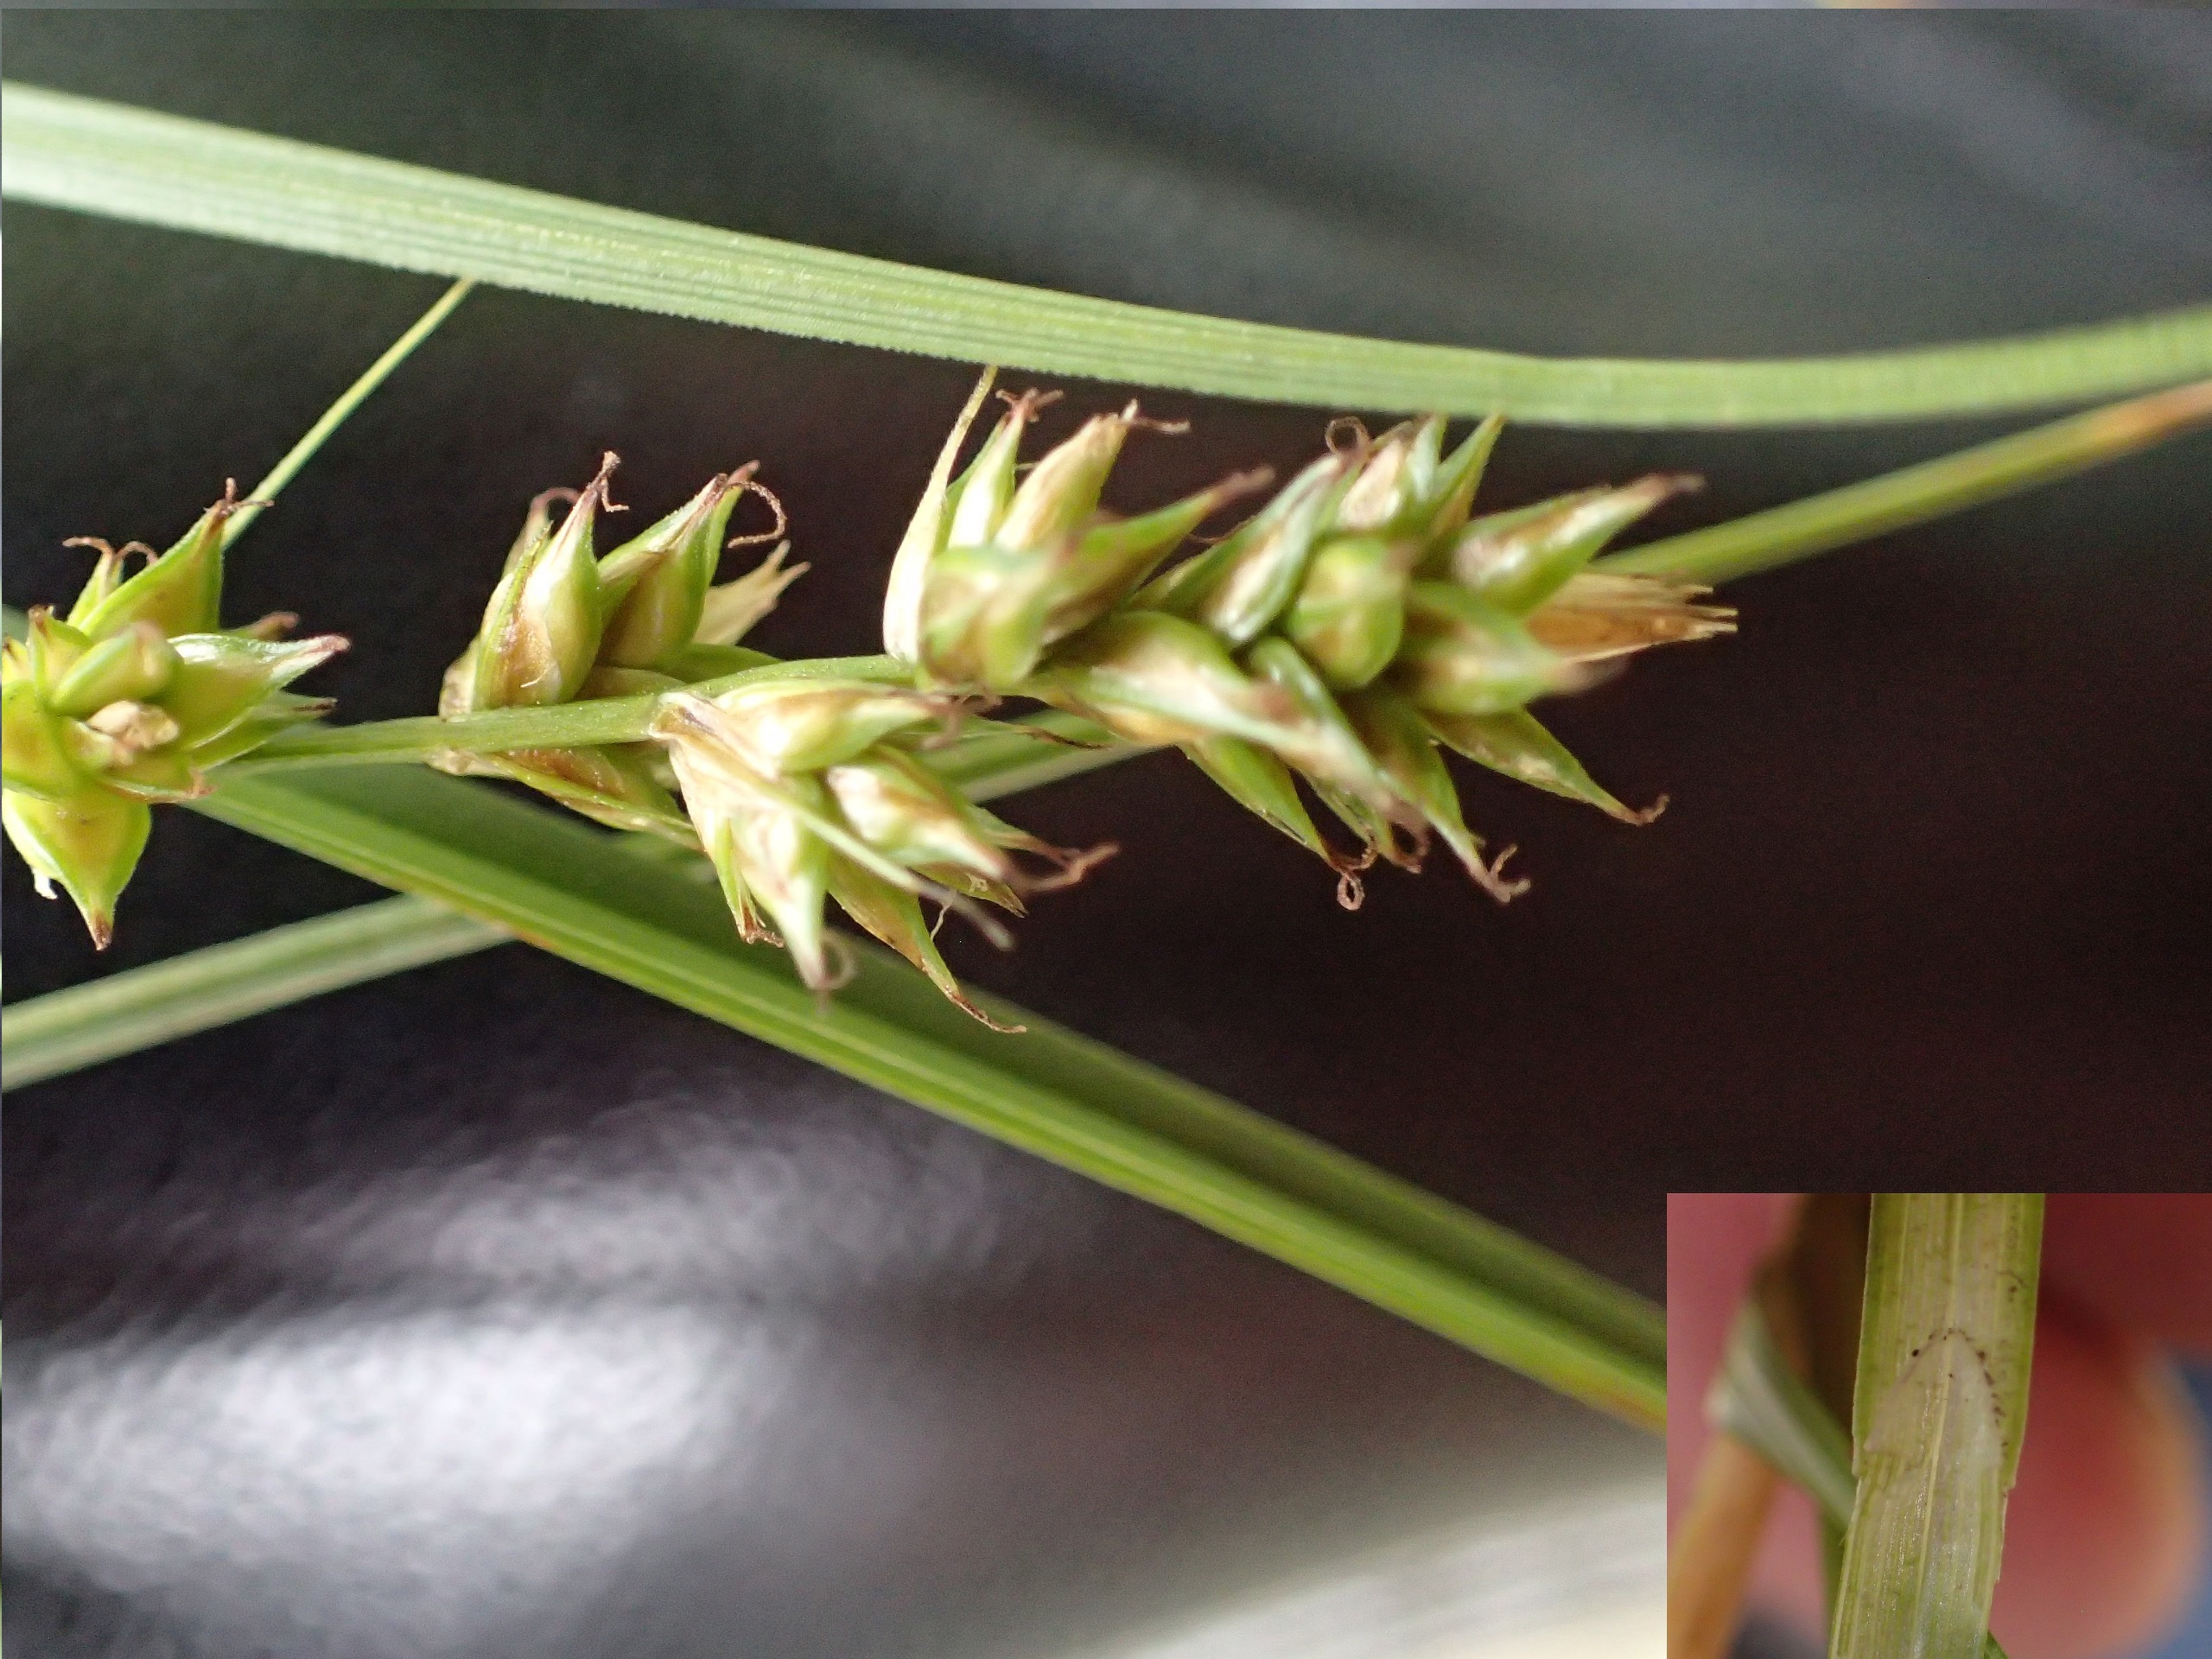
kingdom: Plantae
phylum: Tracheophyta
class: Liliopsida
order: Poales
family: Cyperaceae
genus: Carex
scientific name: Carex pairae
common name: Pigget star
